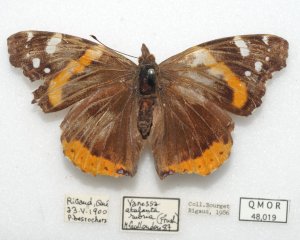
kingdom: Animalia
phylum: Arthropoda
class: Insecta
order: Lepidoptera
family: Nymphalidae
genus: Vanessa
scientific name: Vanessa atalanta
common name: Red Admiral
